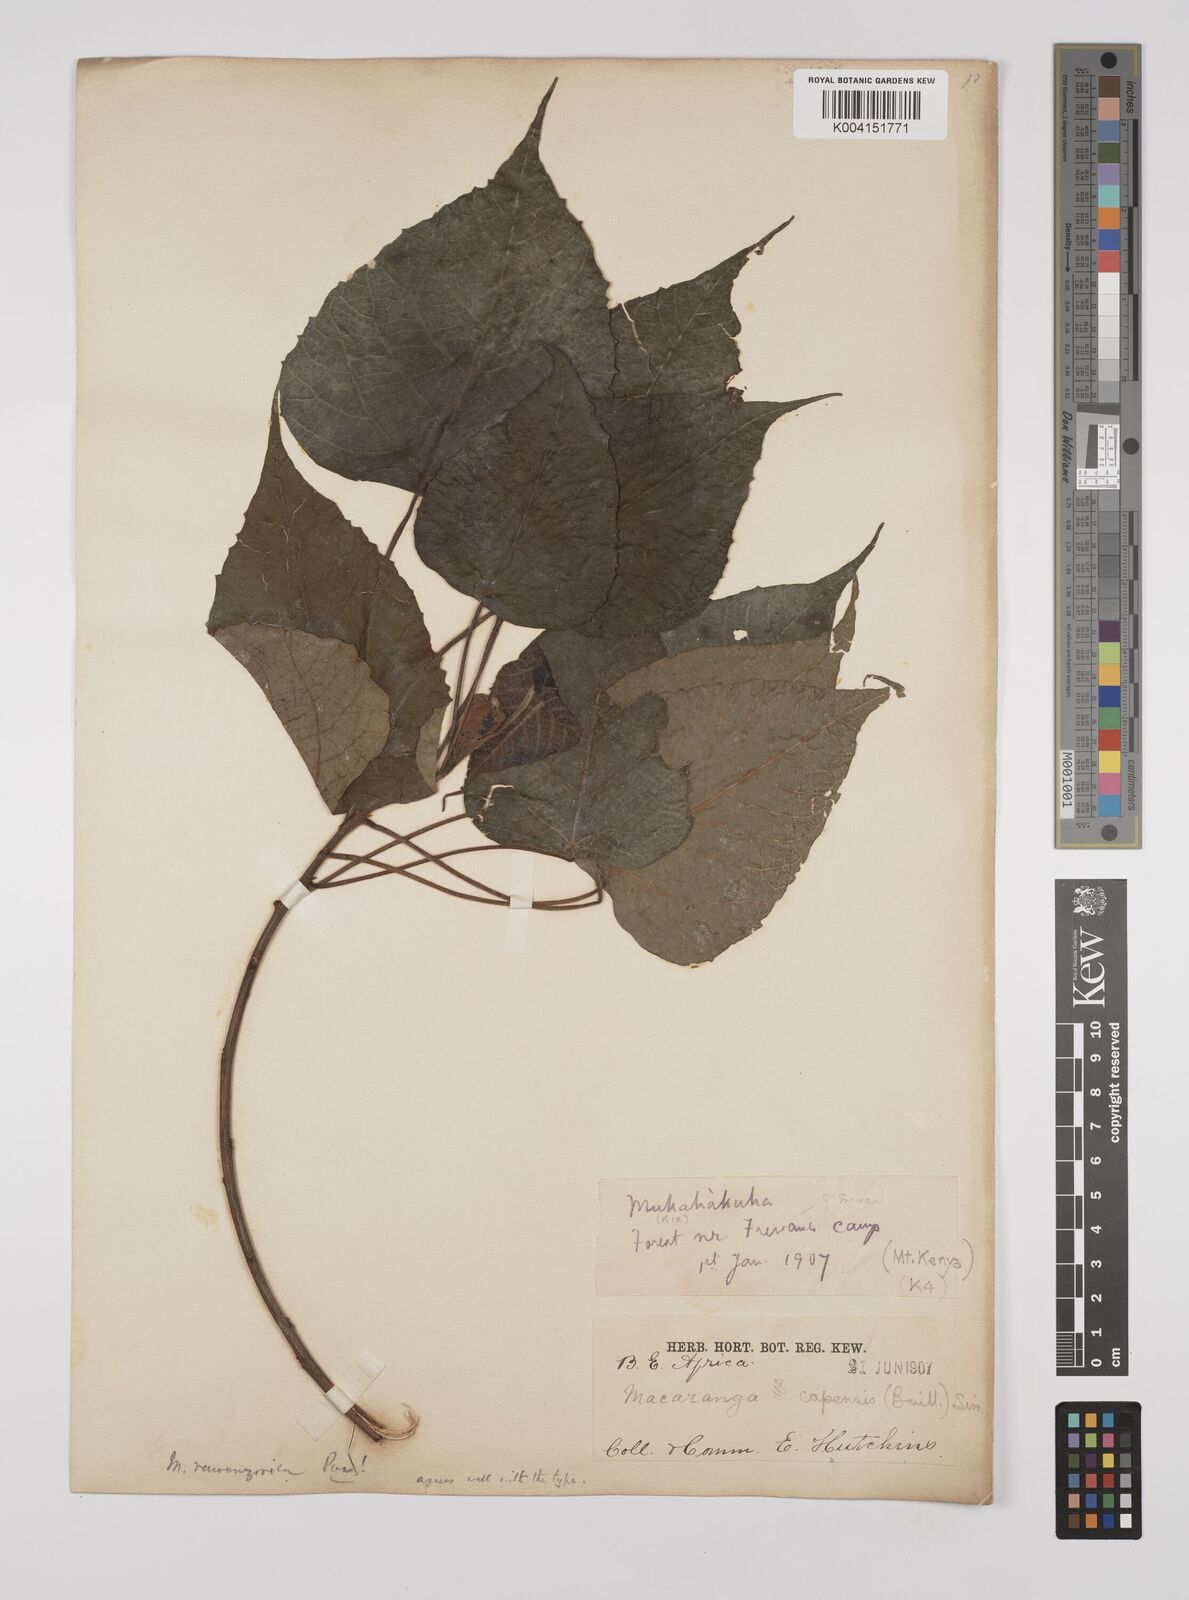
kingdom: Plantae
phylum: Tracheophyta
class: Magnoliopsida
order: Malpighiales
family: Euphorbiaceae
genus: Macaranga
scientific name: Macaranga capensis
